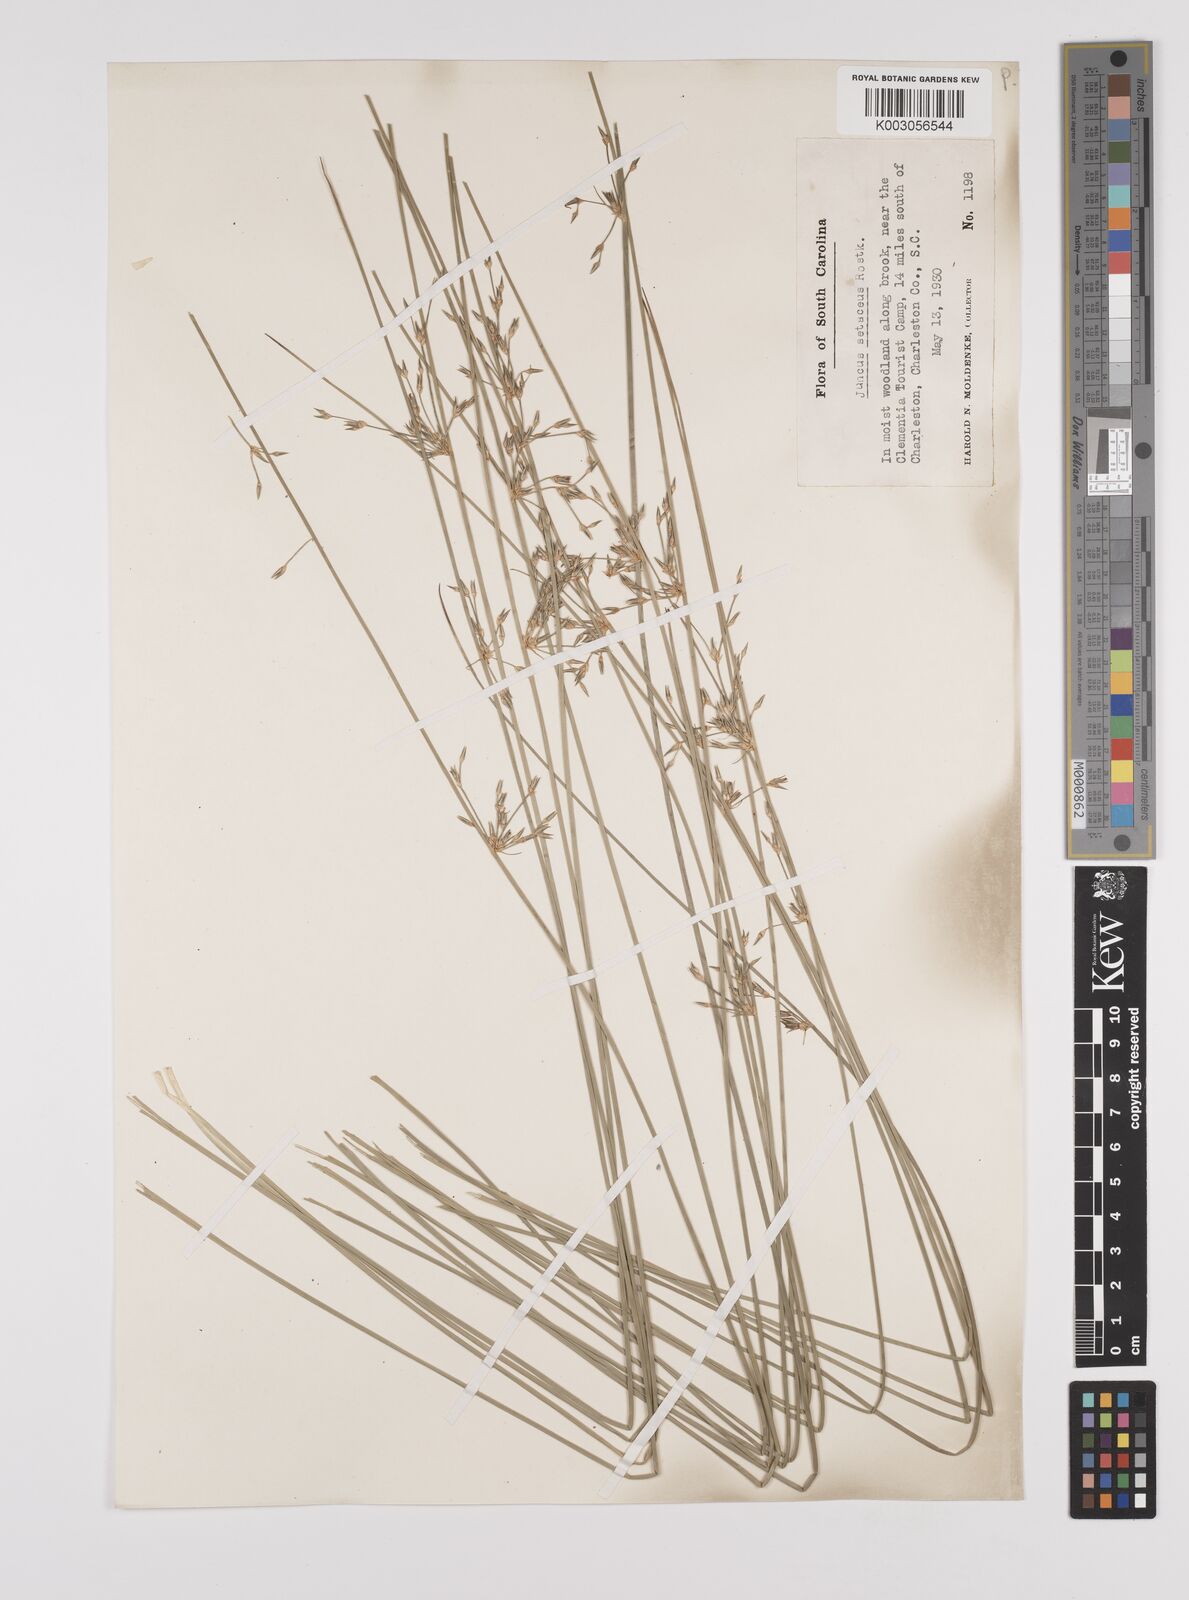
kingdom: Plantae
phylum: Tracheophyta
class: Liliopsida
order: Poales
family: Juncaceae
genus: Juncus
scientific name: Juncus balticus
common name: Baltic rush
